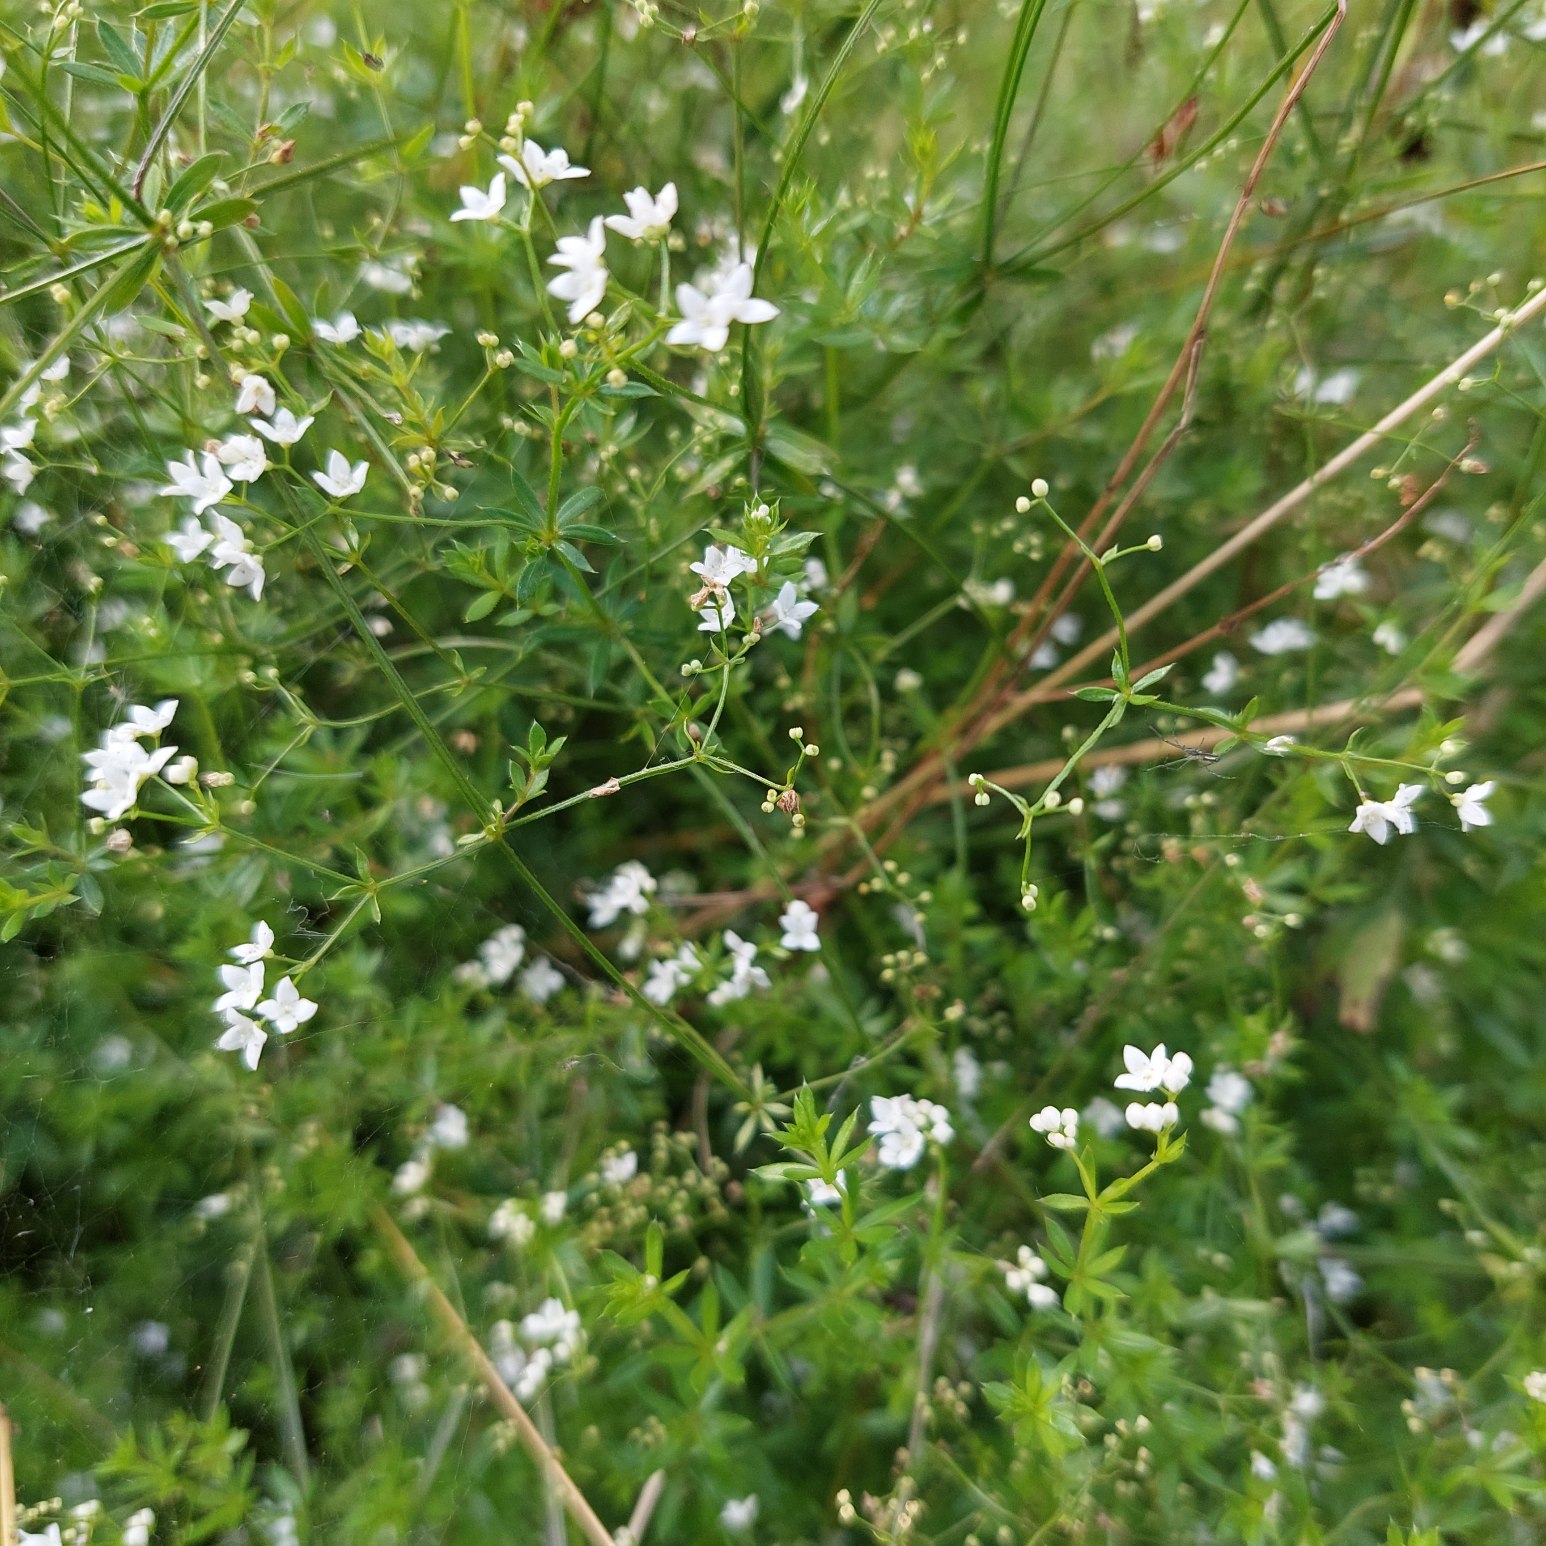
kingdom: Plantae
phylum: Tracheophyta
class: Magnoliopsida
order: Gentianales
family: Rubiaceae
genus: Galium
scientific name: Galium uliginosum
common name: Sump-snerre
